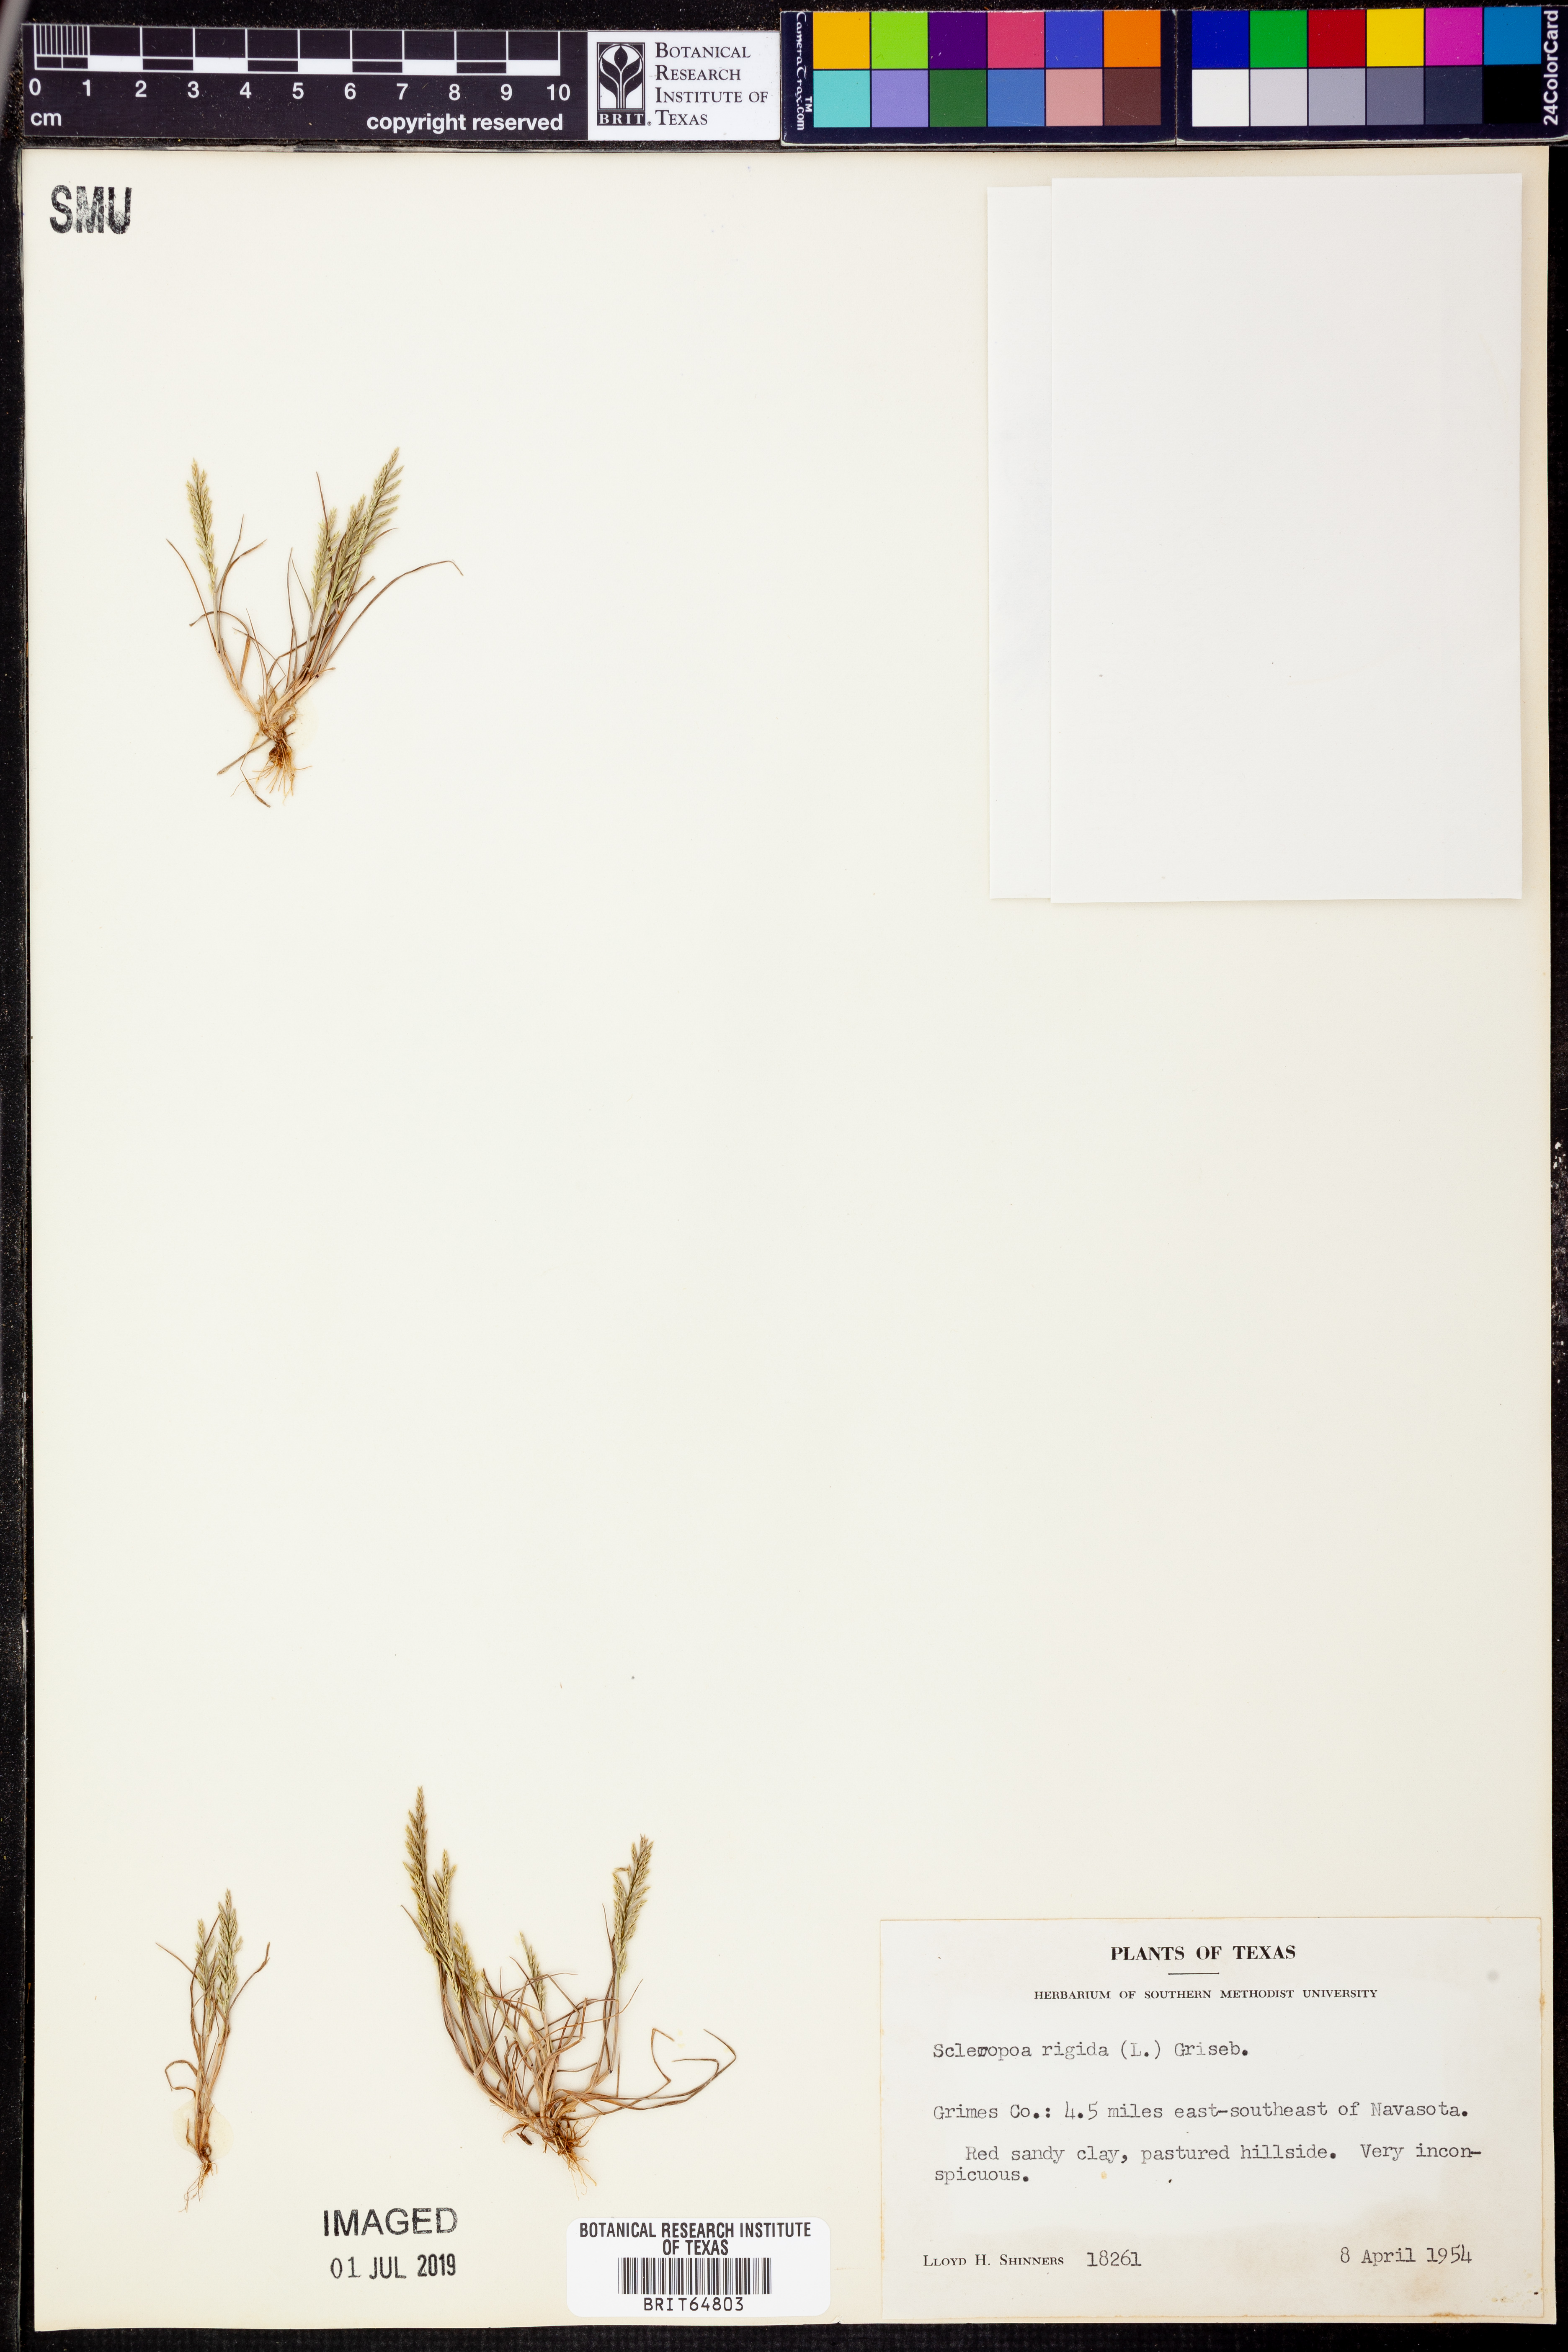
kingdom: Plantae
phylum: Tracheophyta
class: Liliopsida
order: Poales
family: Poaceae
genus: Catapodium
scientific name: Catapodium rigidum
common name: Fern-grass
